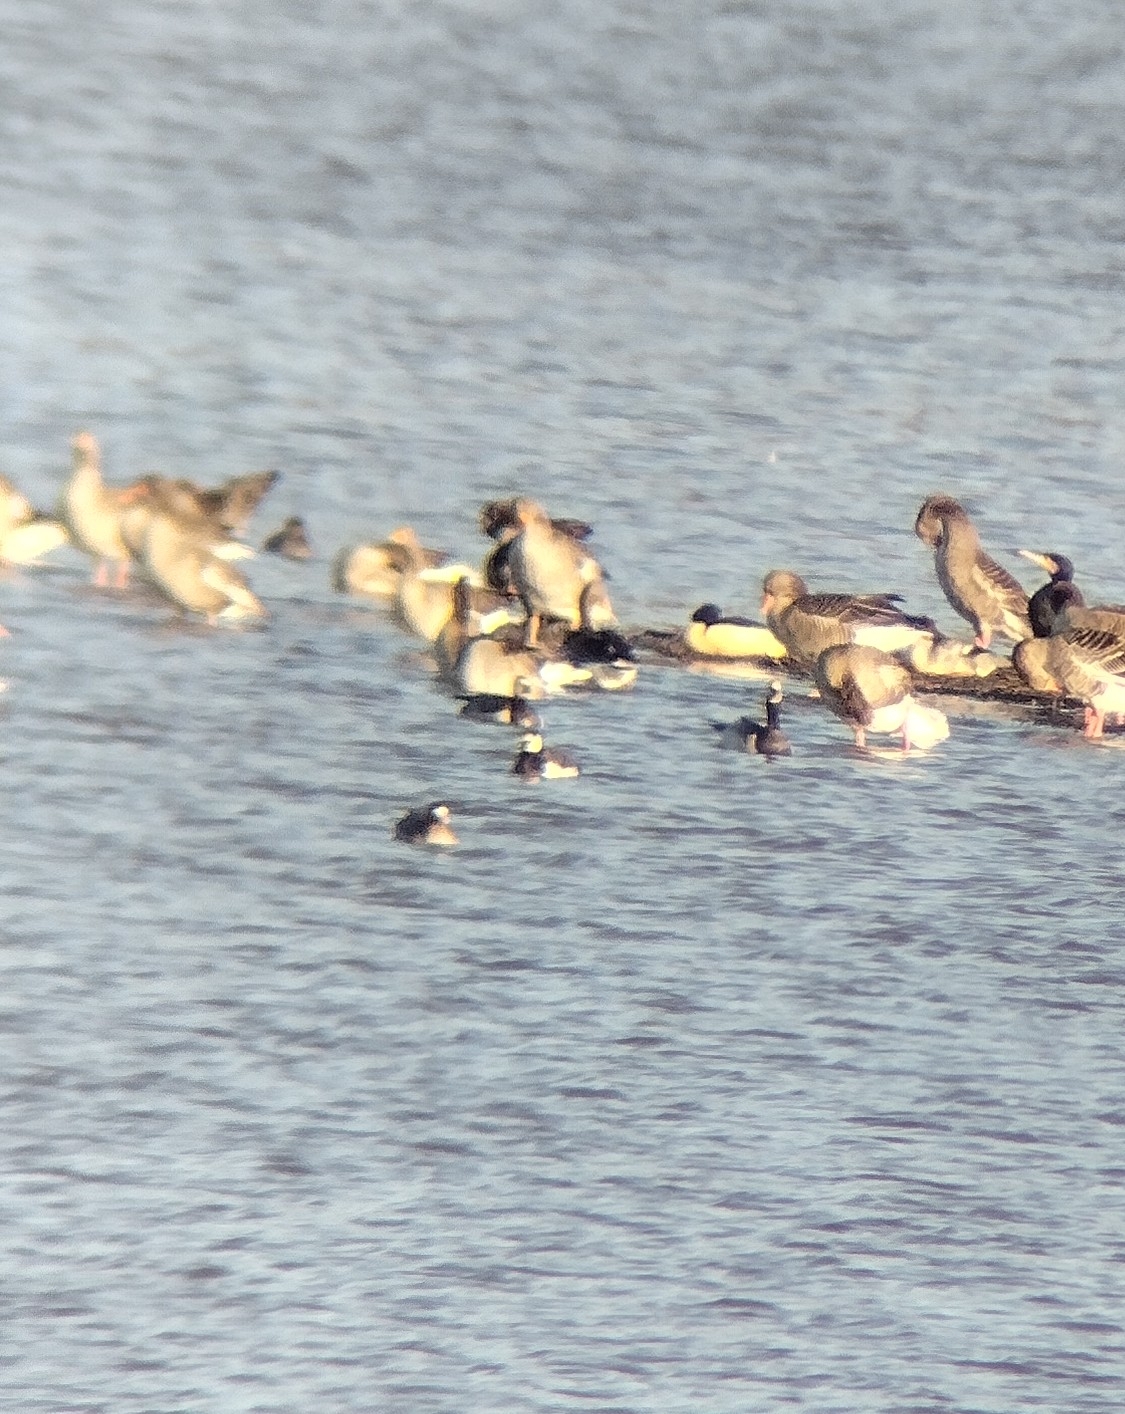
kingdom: Animalia
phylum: Chordata
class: Aves
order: Anseriformes
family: Anatidae
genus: Mergus
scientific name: Mergus merganser
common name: Stor skallesluger
